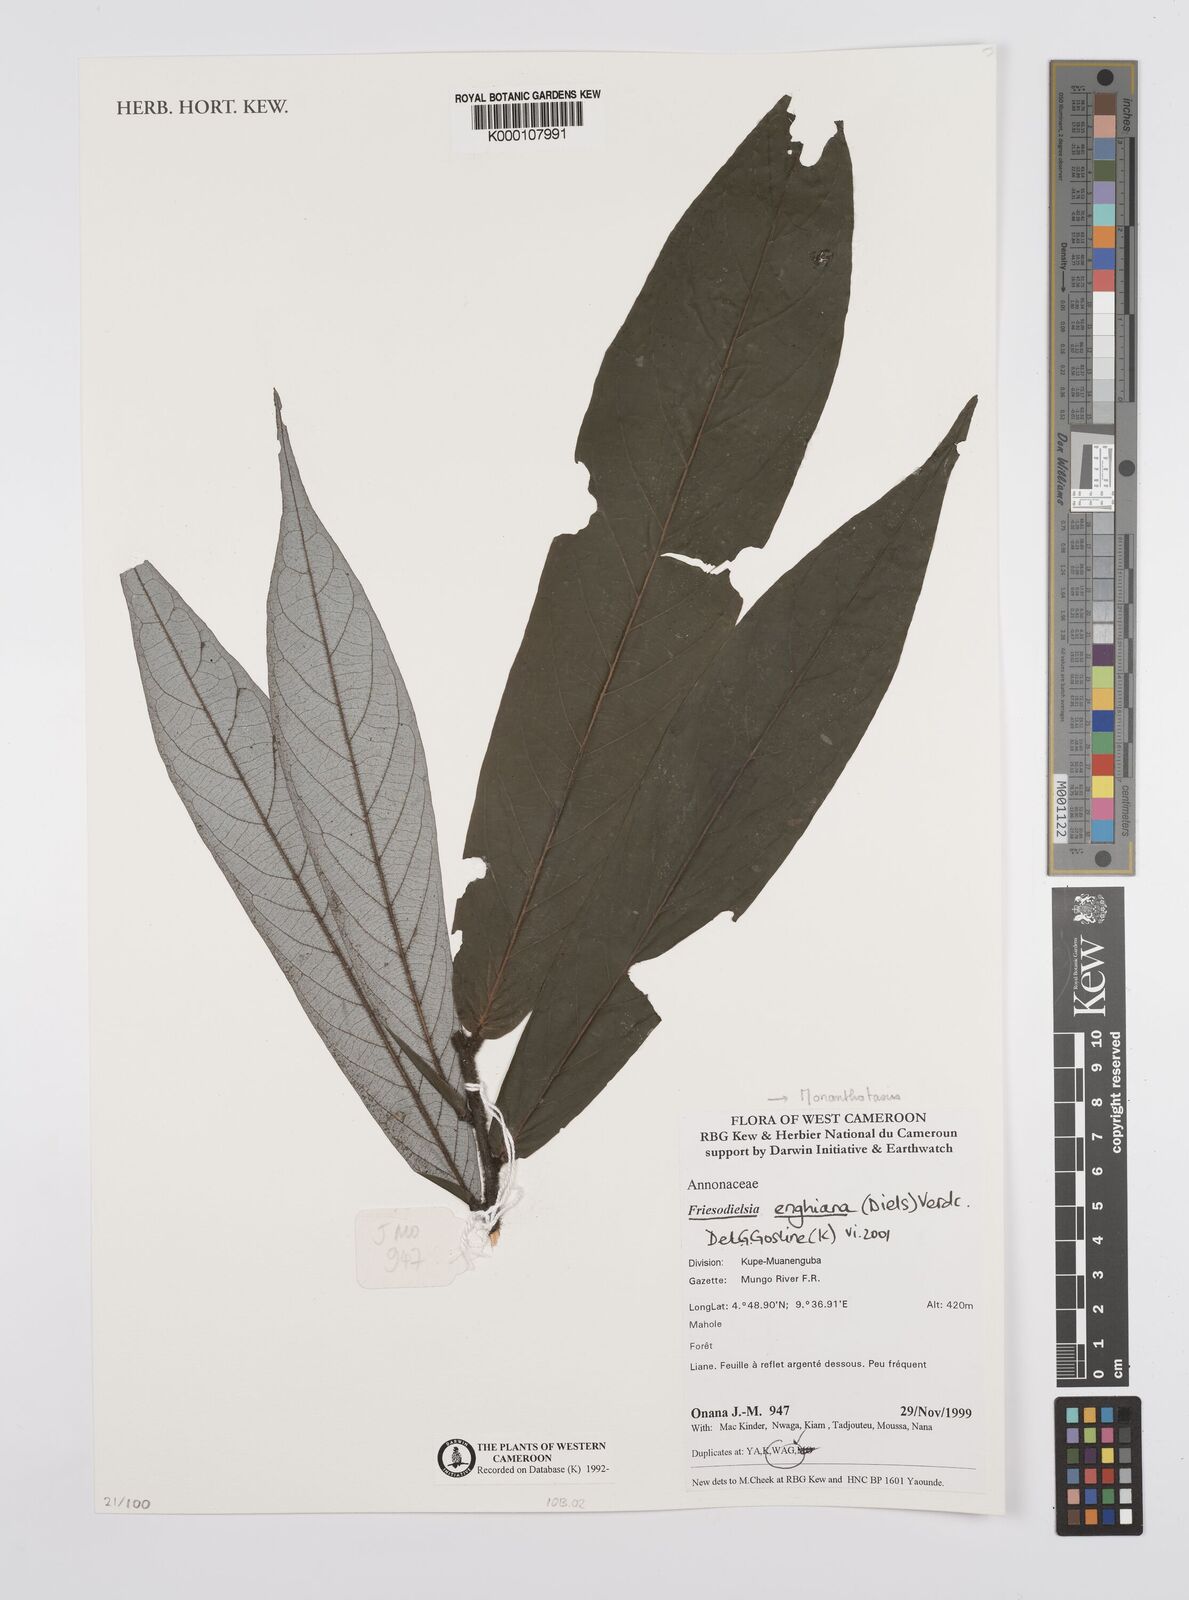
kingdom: Plantae
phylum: Tracheophyta
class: Magnoliopsida
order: Magnoliales
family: Annonaceae
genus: Friesodielsia
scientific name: Friesodielsia enghiana
